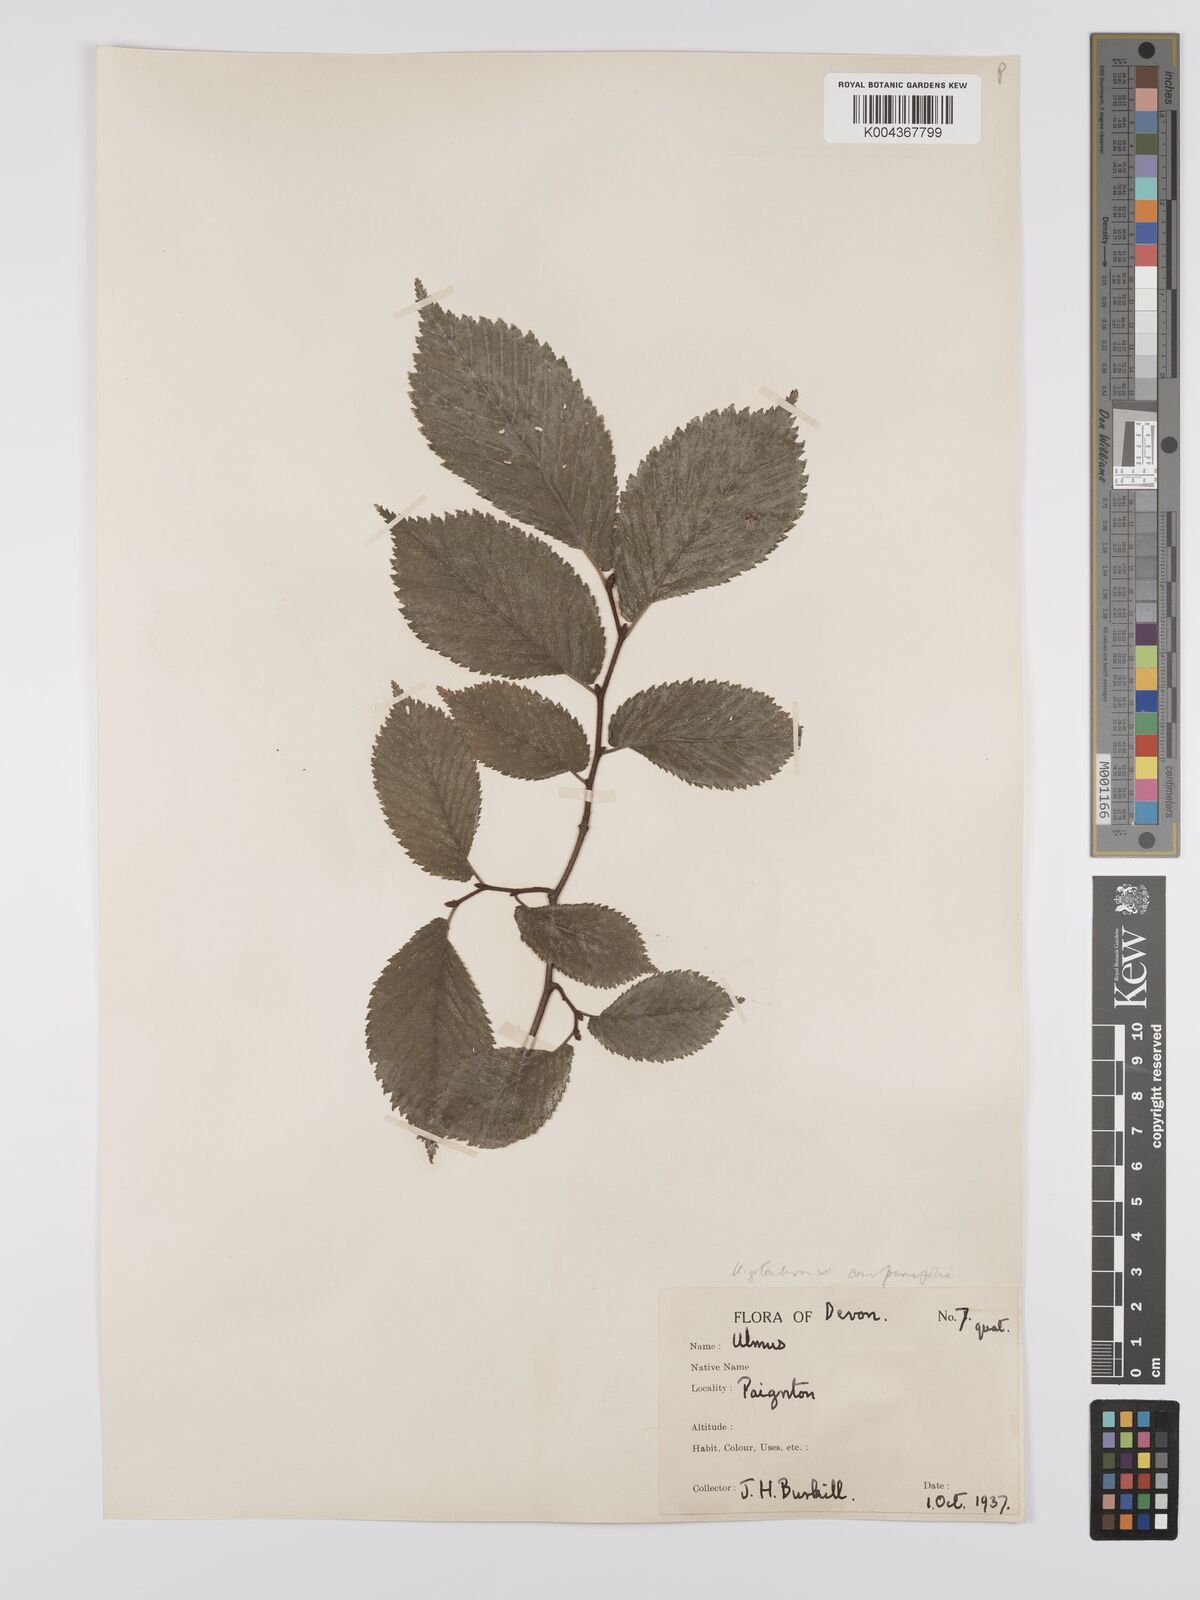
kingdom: Plantae
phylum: Tracheophyta
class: Magnoliopsida
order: Rosales
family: Ulmaceae
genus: Ulmus
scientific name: Ulmus
